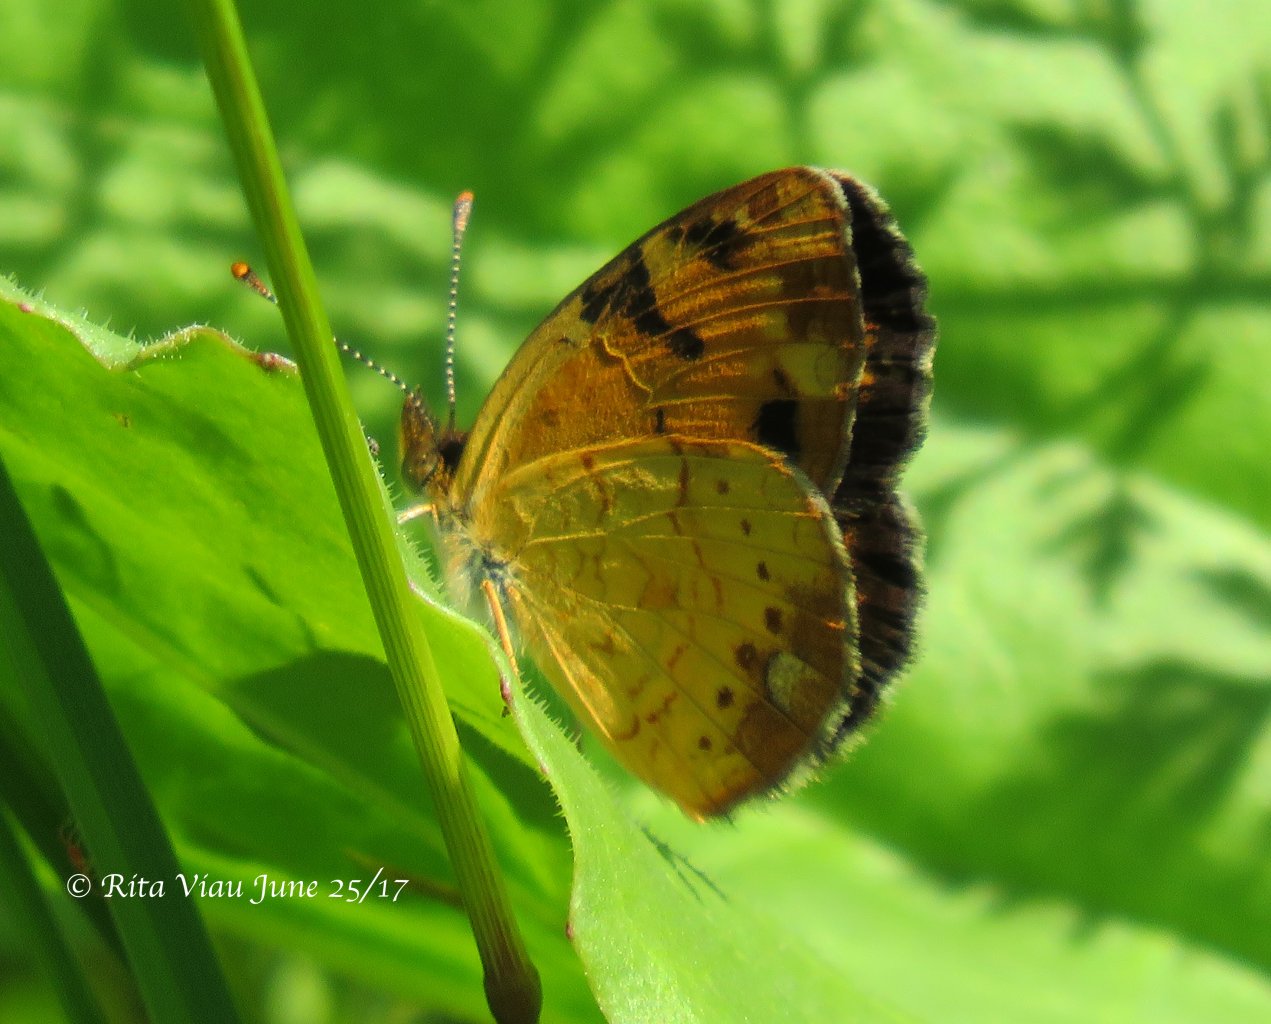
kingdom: Animalia
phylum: Arthropoda
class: Insecta
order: Lepidoptera
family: Nymphalidae
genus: Phyciodes
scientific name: Phyciodes tharos
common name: Northern Crescent
